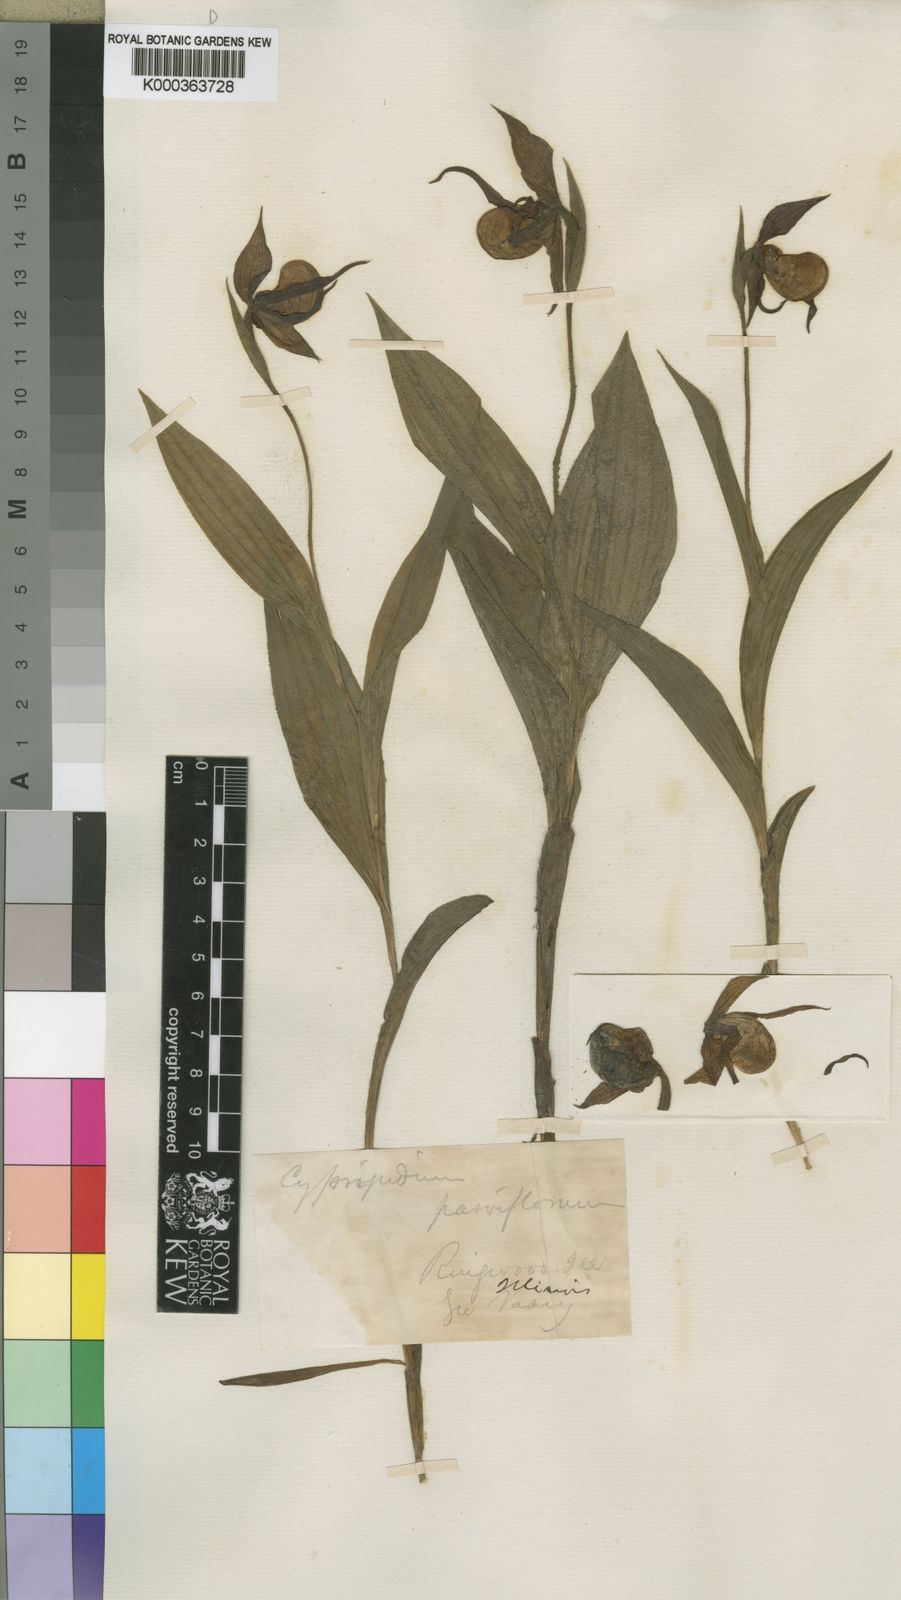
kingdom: Plantae
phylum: Tracheophyta
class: Liliopsida
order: Asparagales
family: Orchidaceae
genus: Cypripedium
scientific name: Cypripedium parviflorum
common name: American yellow lady's-slipper
